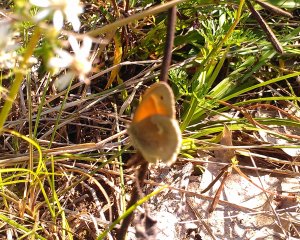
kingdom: Animalia
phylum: Arthropoda
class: Insecta
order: Lepidoptera
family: Nymphalidae
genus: Coenonympha
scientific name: Coenonympha tullia
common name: Large Heath
